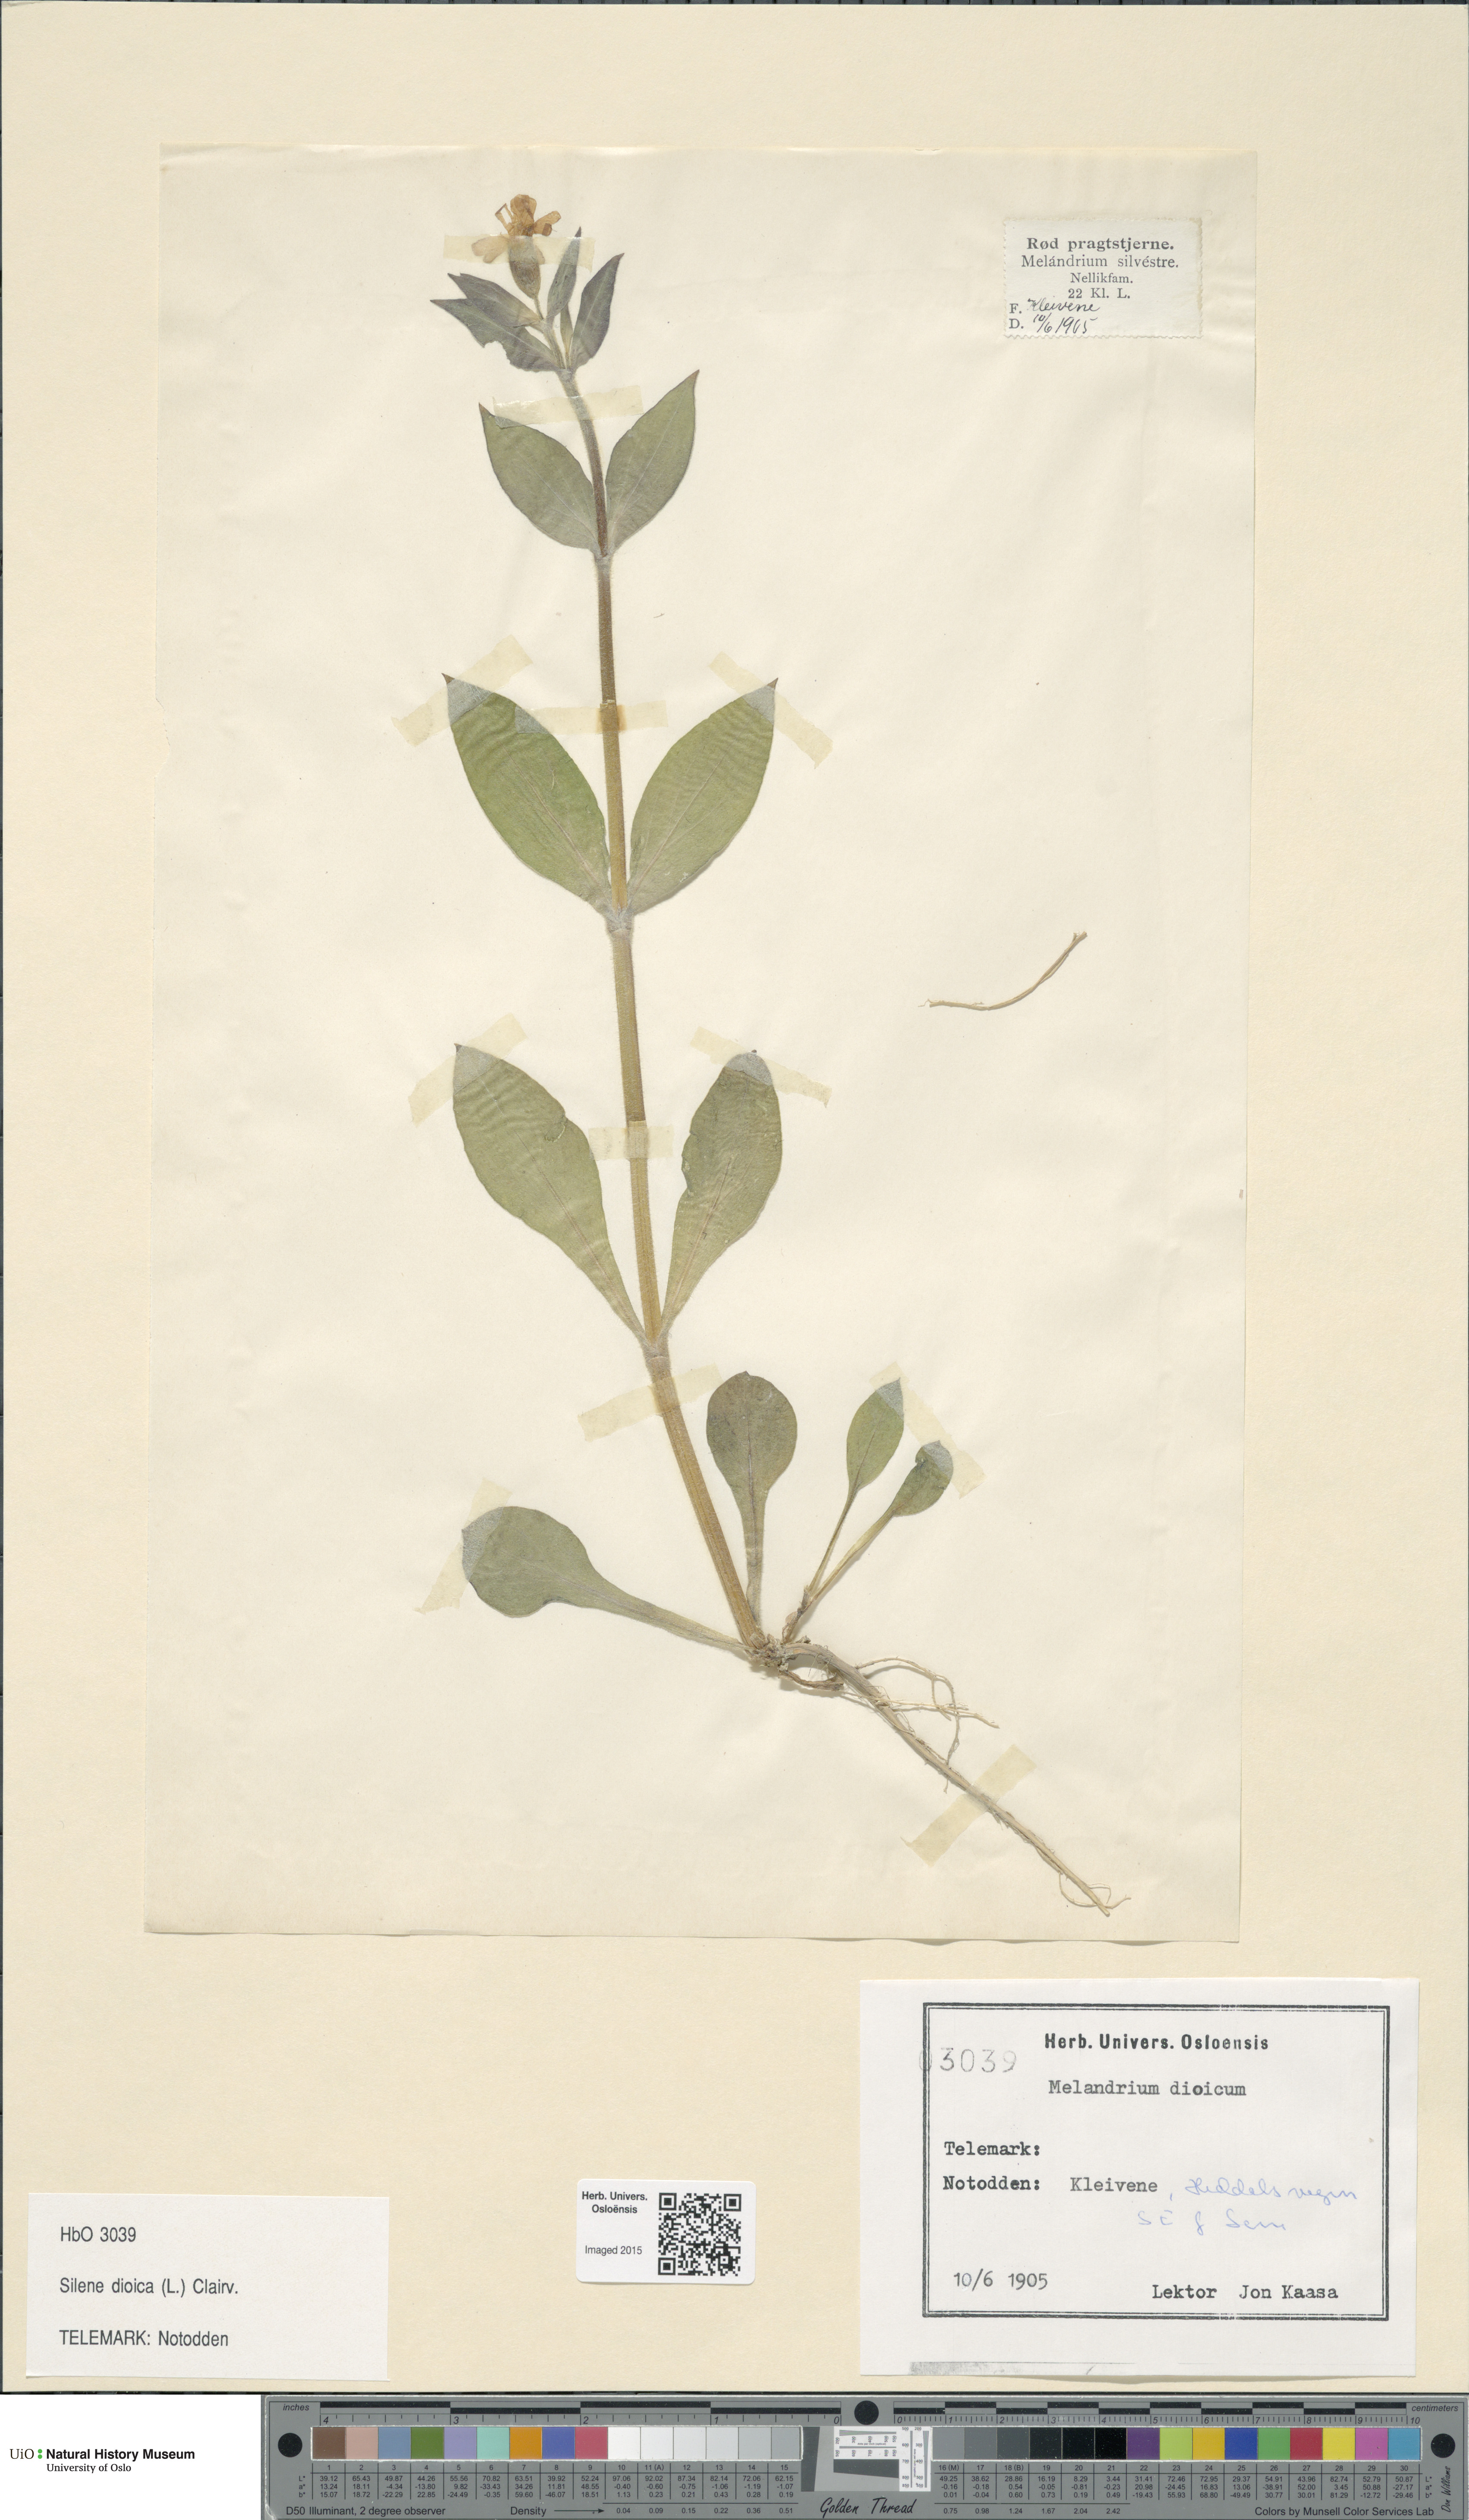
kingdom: Plantae
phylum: Tracheophyta
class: Magnoliopsida
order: Caryophyllales
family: Caryophyllaceae
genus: Silene
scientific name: Silene dioica
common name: Red campion
